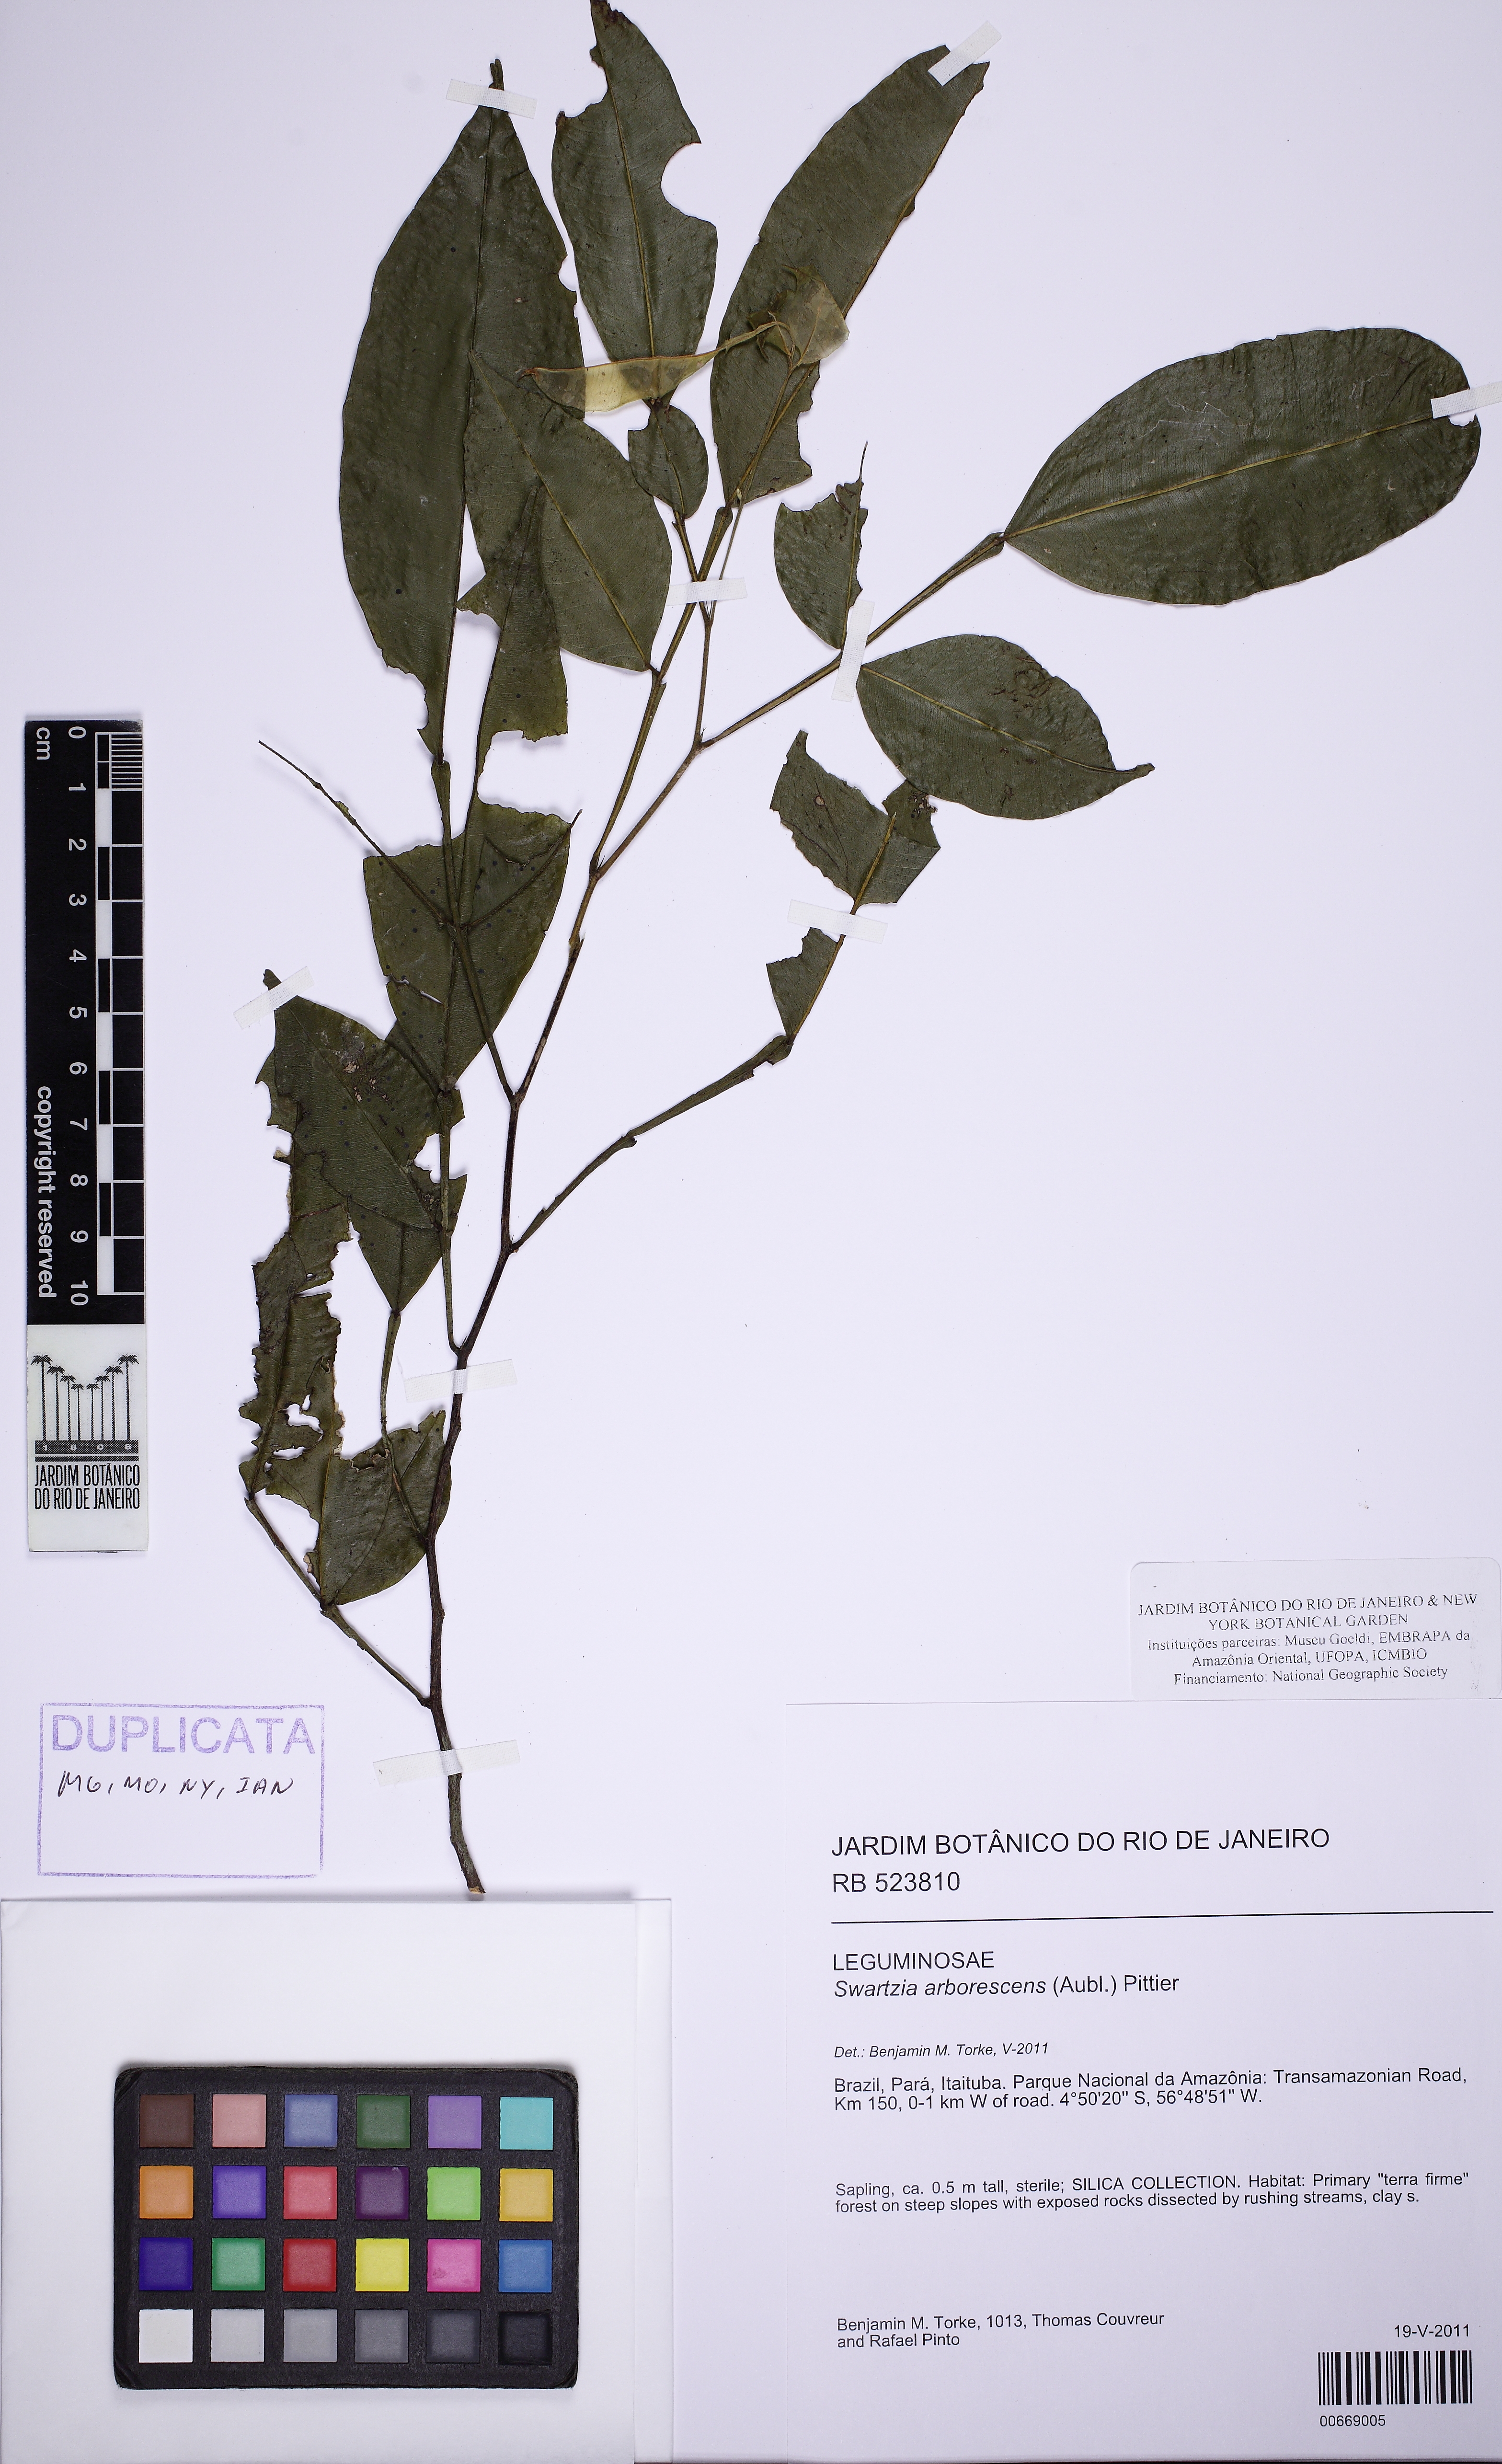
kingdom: Plantae
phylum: Tracheophyta
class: Magnoliopsida
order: Fabales
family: Fabaceae
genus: Swartzia
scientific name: Swartzia arborescens
